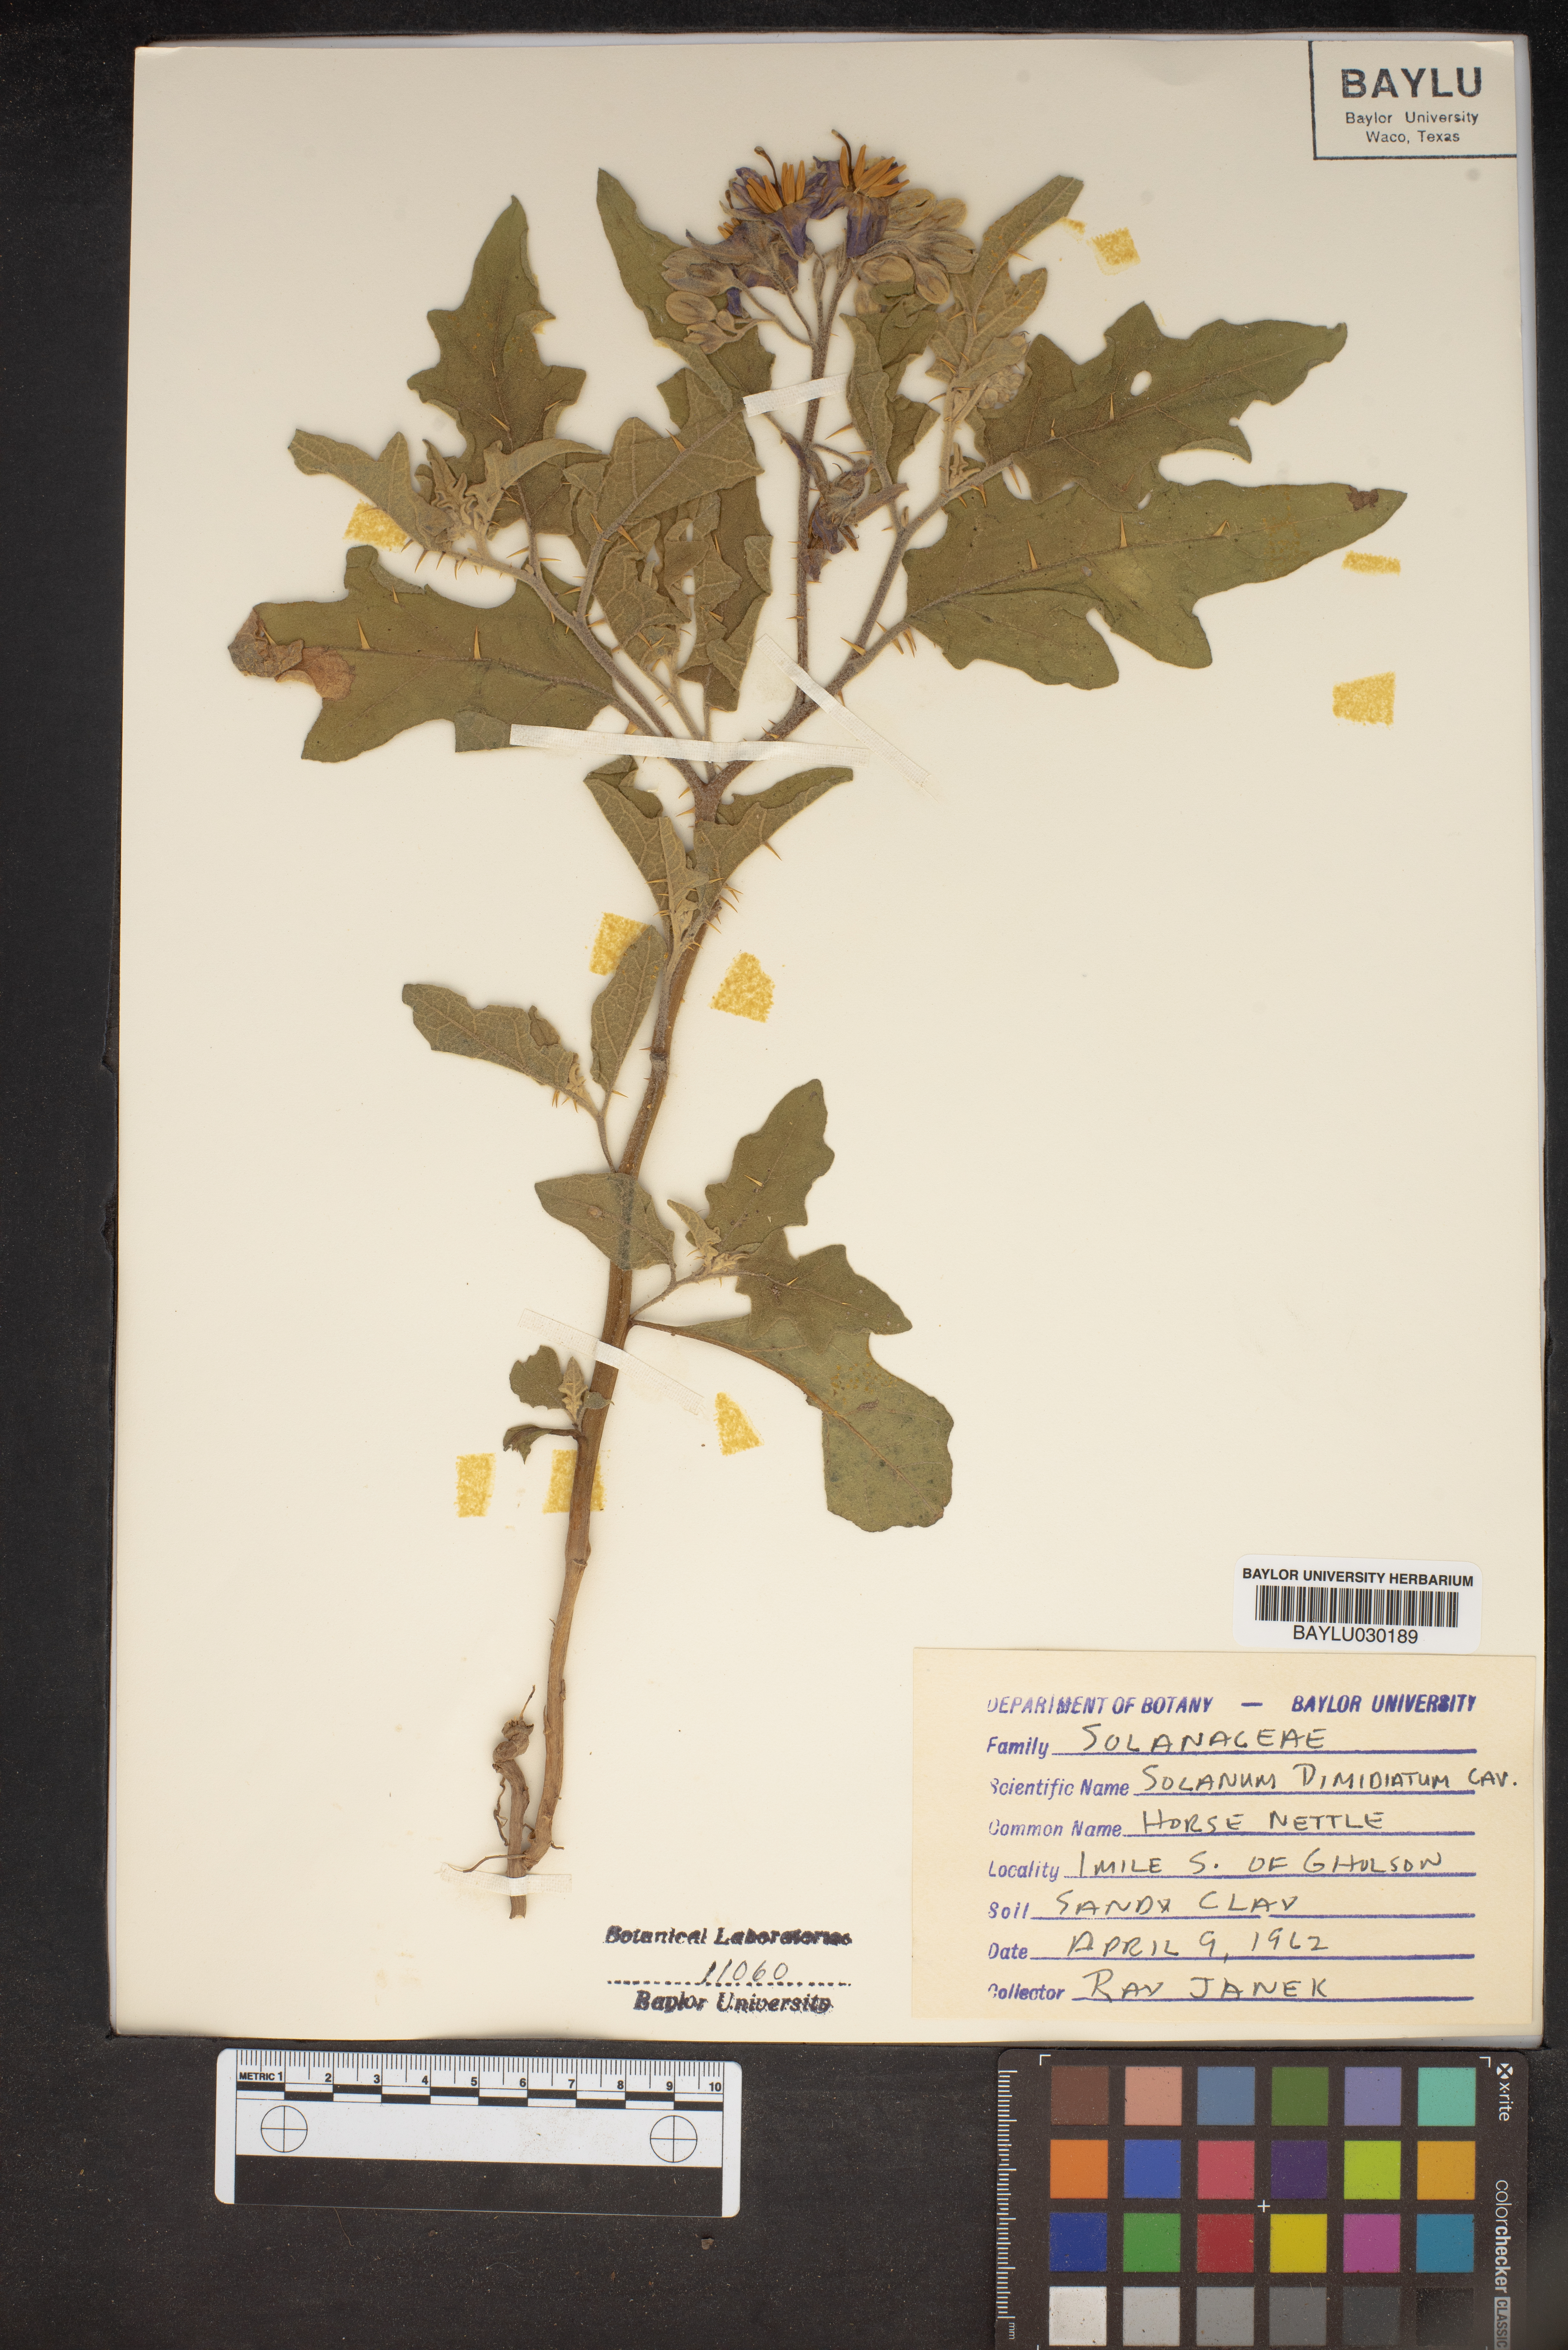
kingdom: Plantae
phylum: Tracheophyta
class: Magnoliopsida
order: Solanales
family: Solanaceae
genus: Solanum
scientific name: Solanum dimidiatum
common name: Carolina horse-nettle
